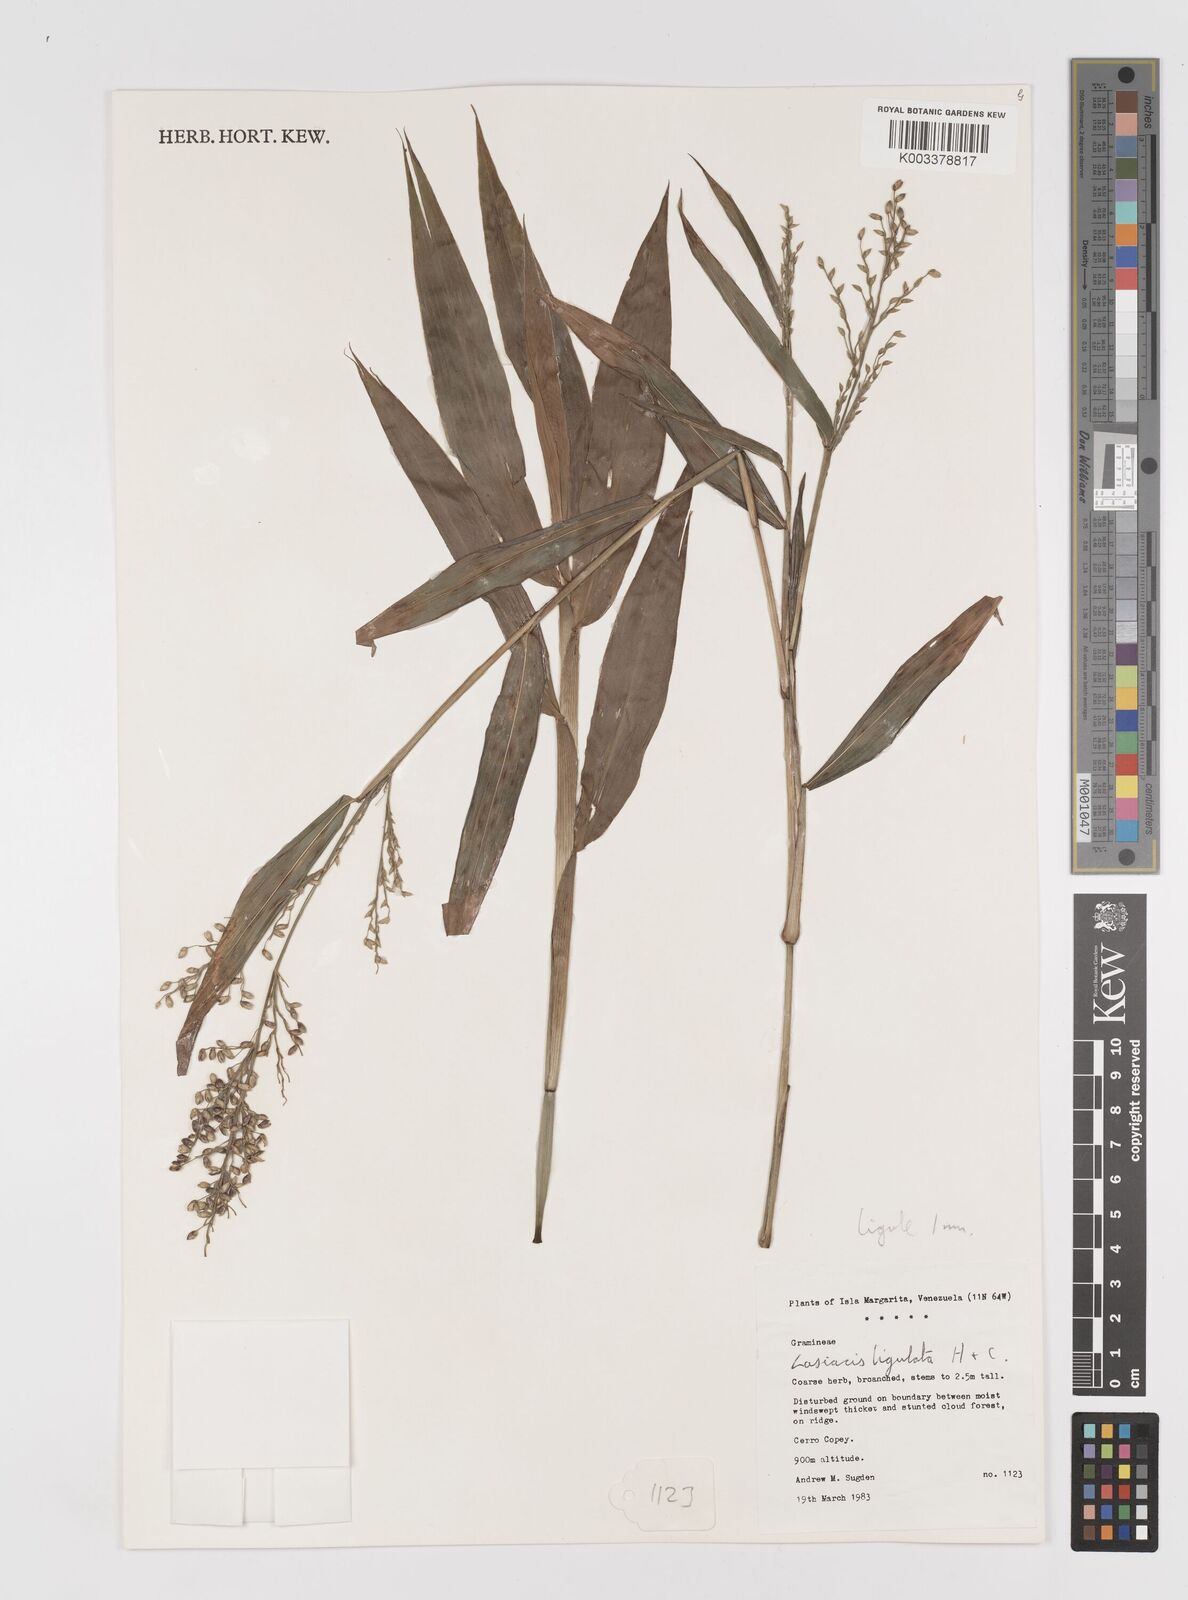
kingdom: Plantae
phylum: Tracheophyta
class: Liliopsida
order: Poales
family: Poaceae
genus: Lasiacis
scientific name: Lasiacis maculata
